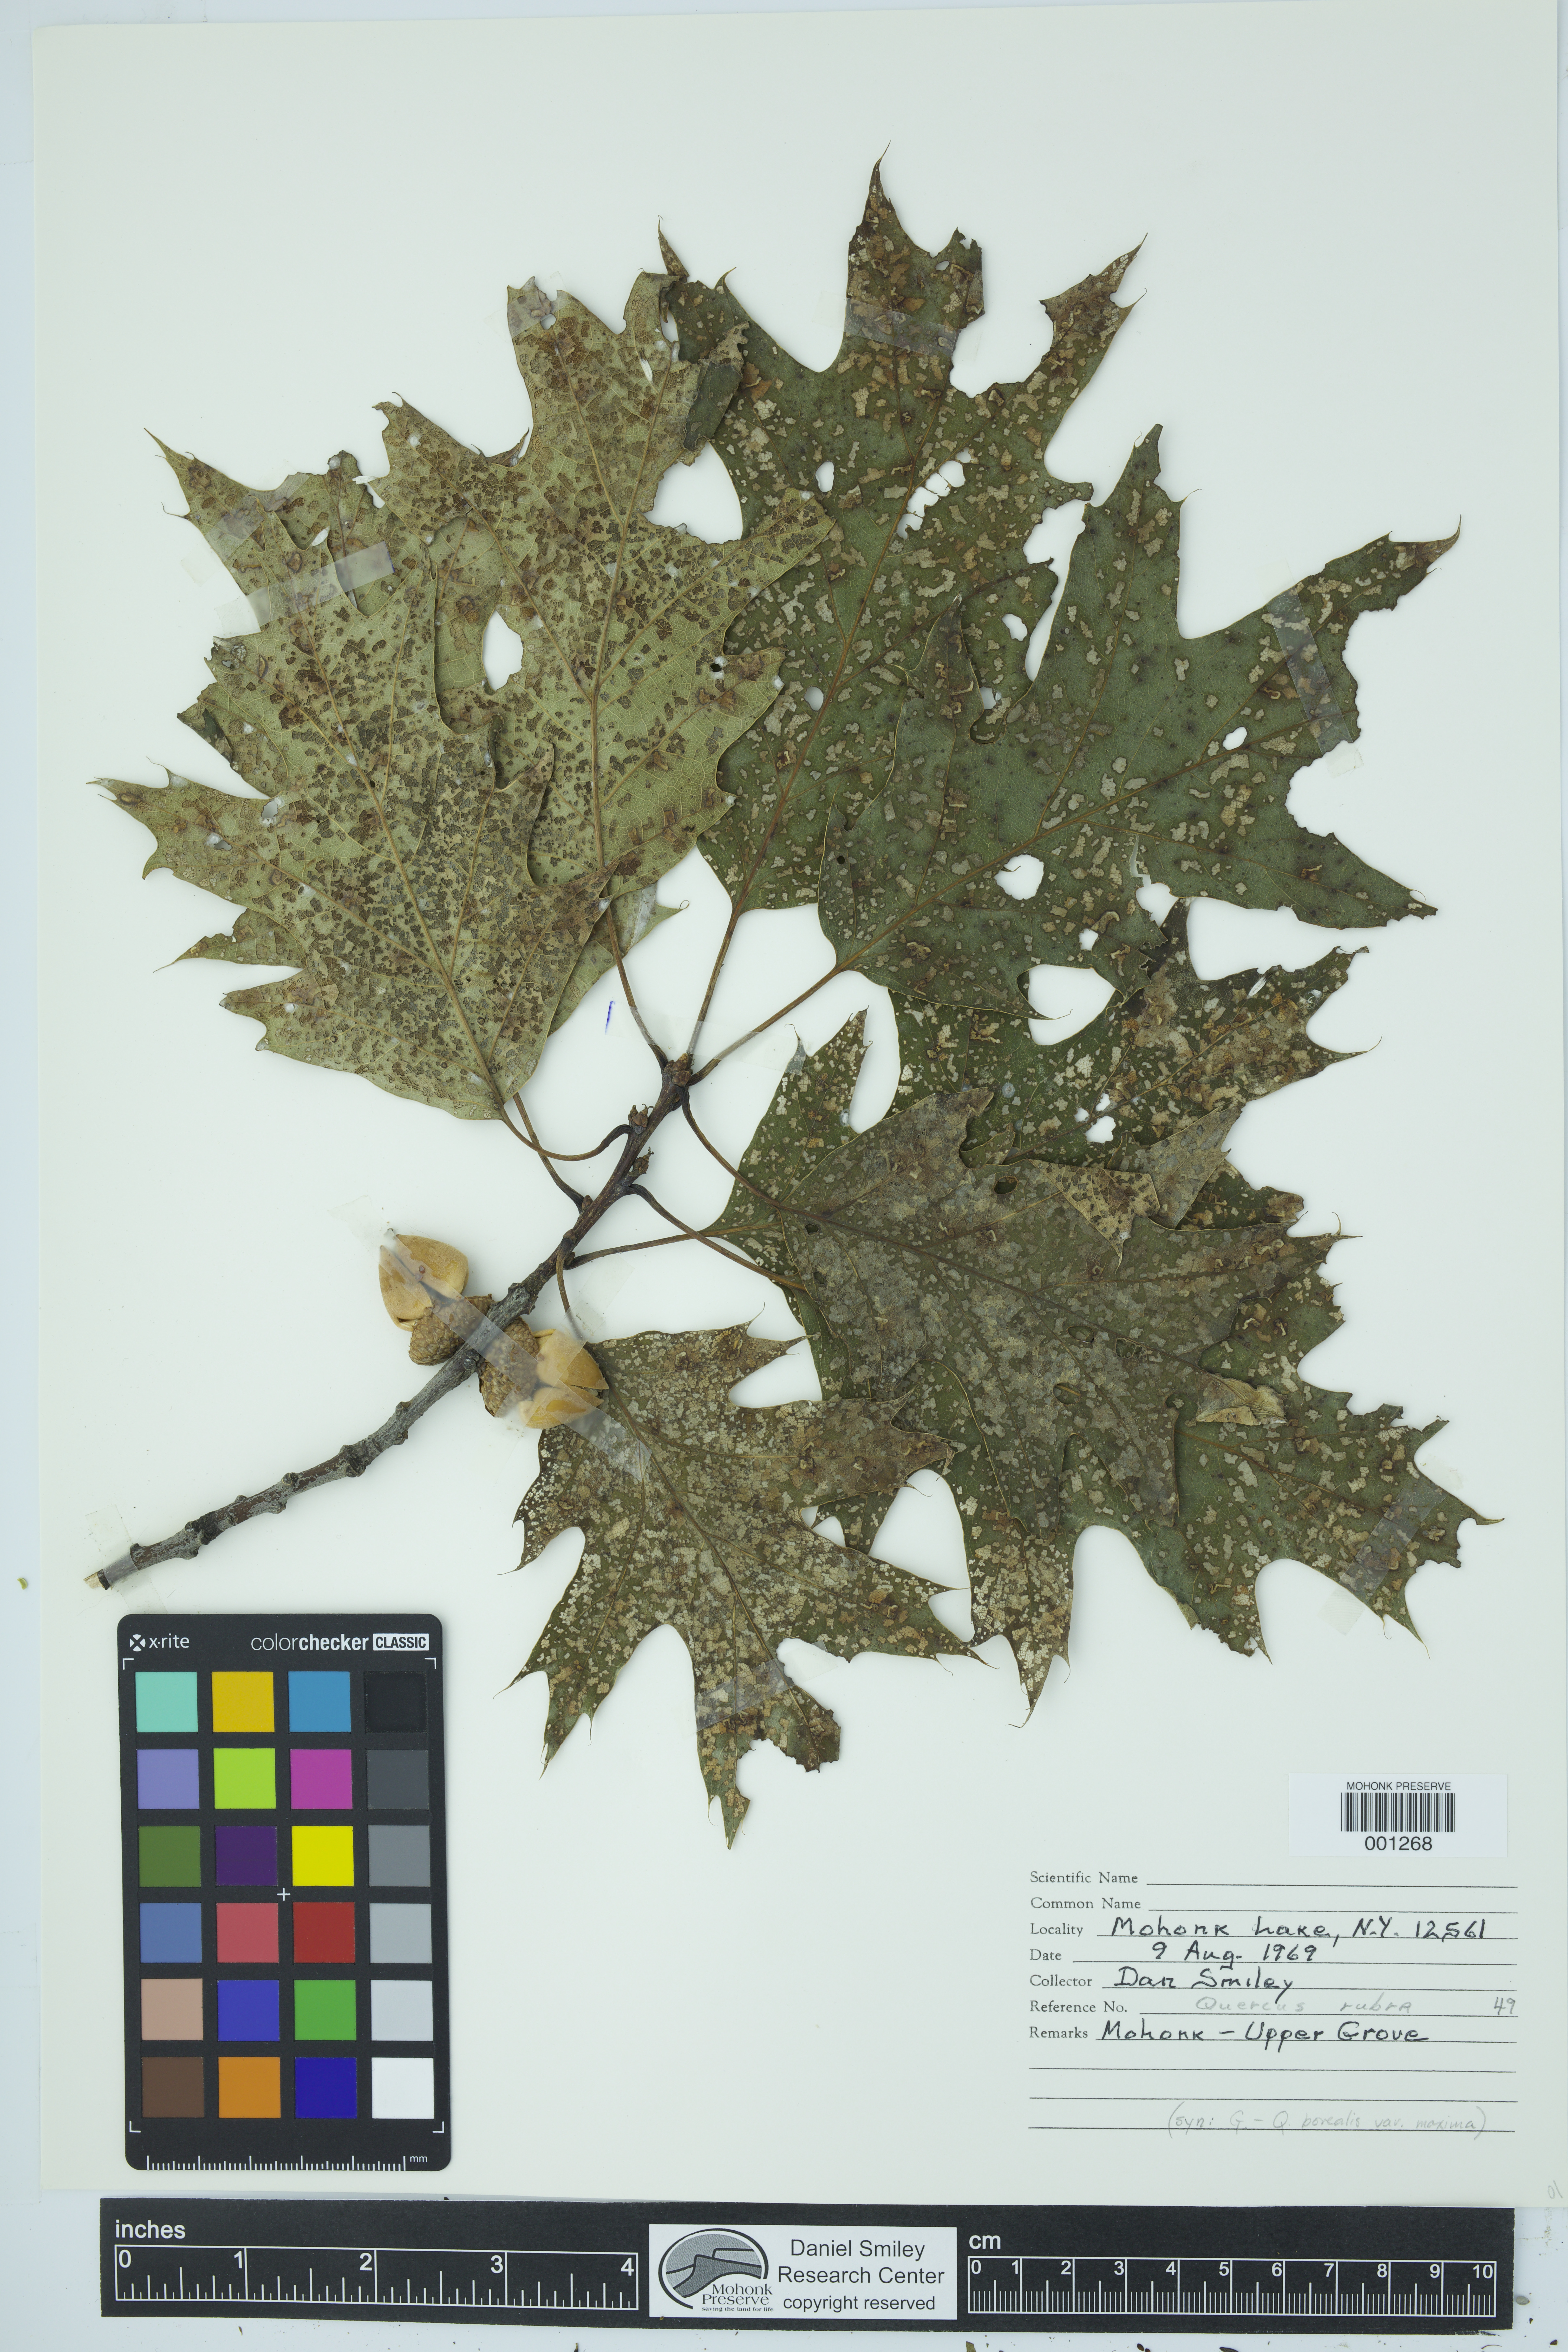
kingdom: Plantae
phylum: Tracheophyta
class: Magnoliopsida
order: Fagales
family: Fagaceae
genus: Quercus
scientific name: Quercus rubra
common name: Red oak
